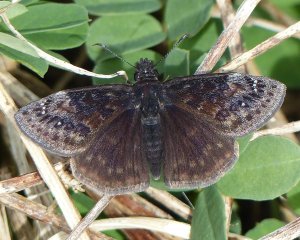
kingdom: Animalia
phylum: Arthropoda
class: Insecta
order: Lepidoptera
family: Hesperiidae
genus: Gesta
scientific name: Gesta
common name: Wild Indigo Duskywing
